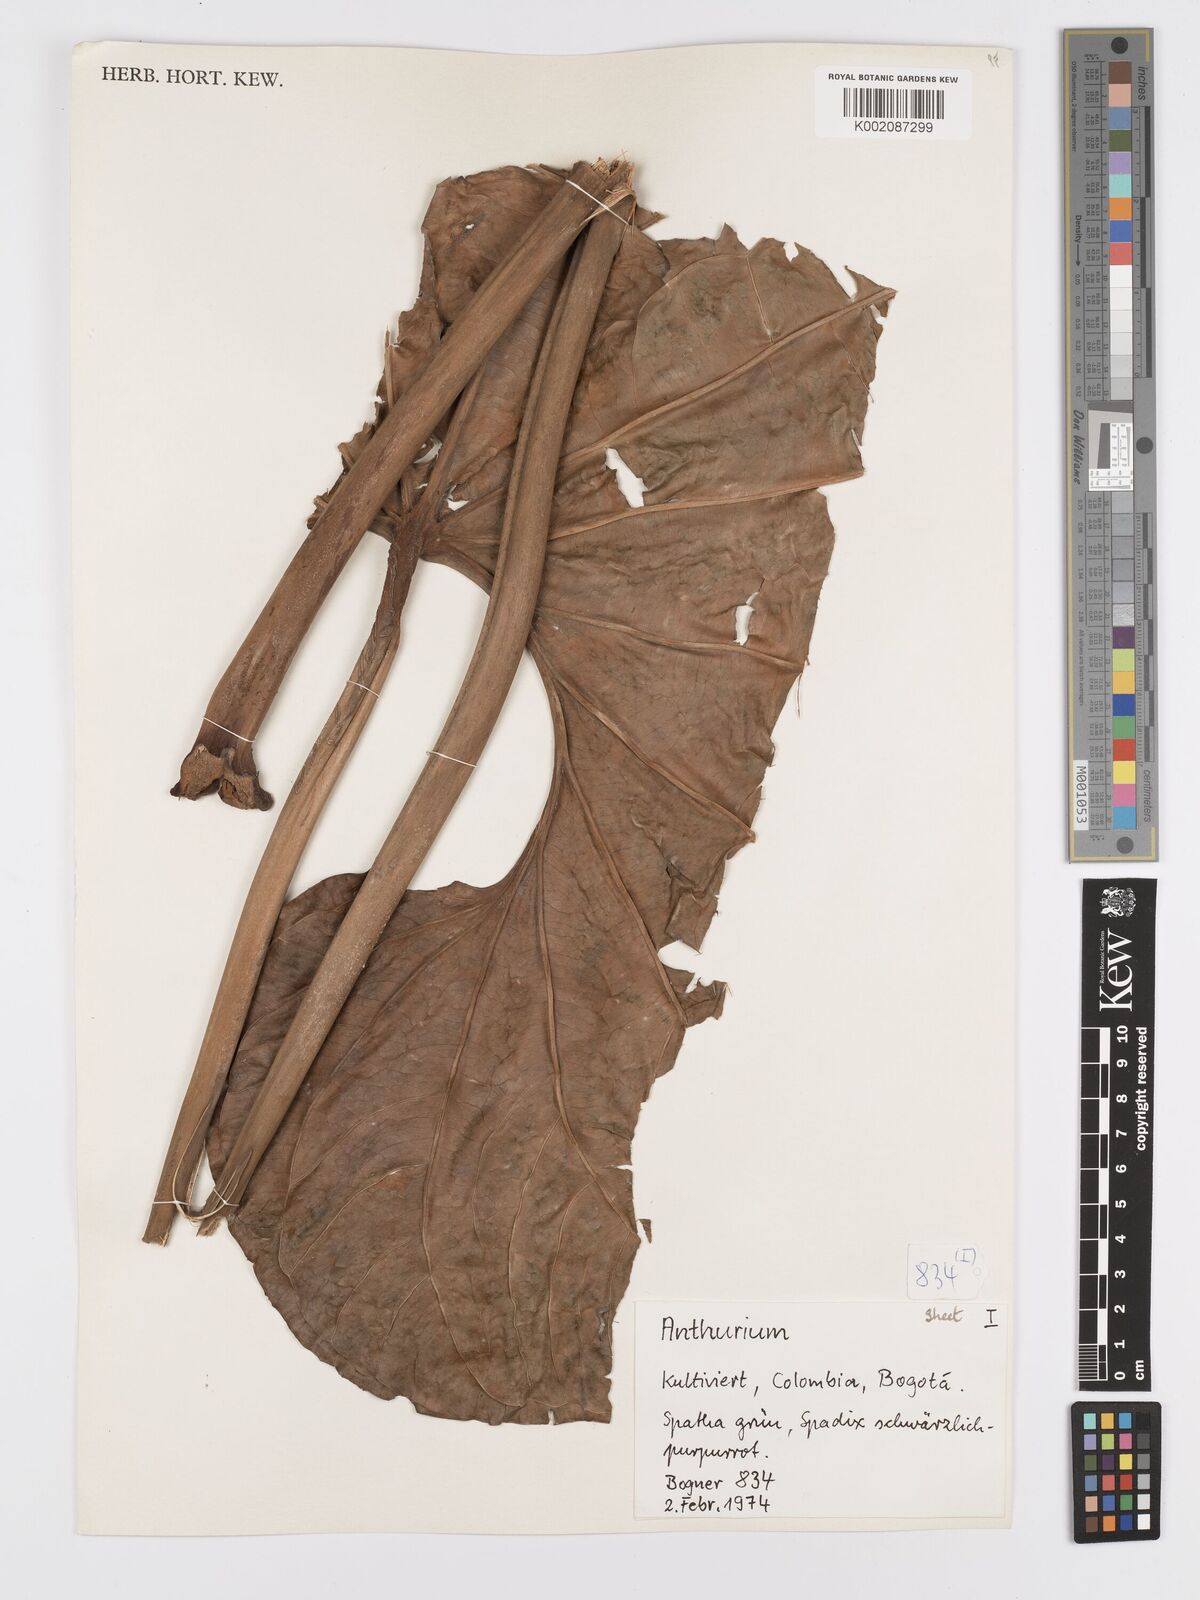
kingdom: Plantae
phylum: Tracheophyta
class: Liliopsida
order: Alismatales
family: Araceae
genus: Anthurium
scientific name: Anthurium
